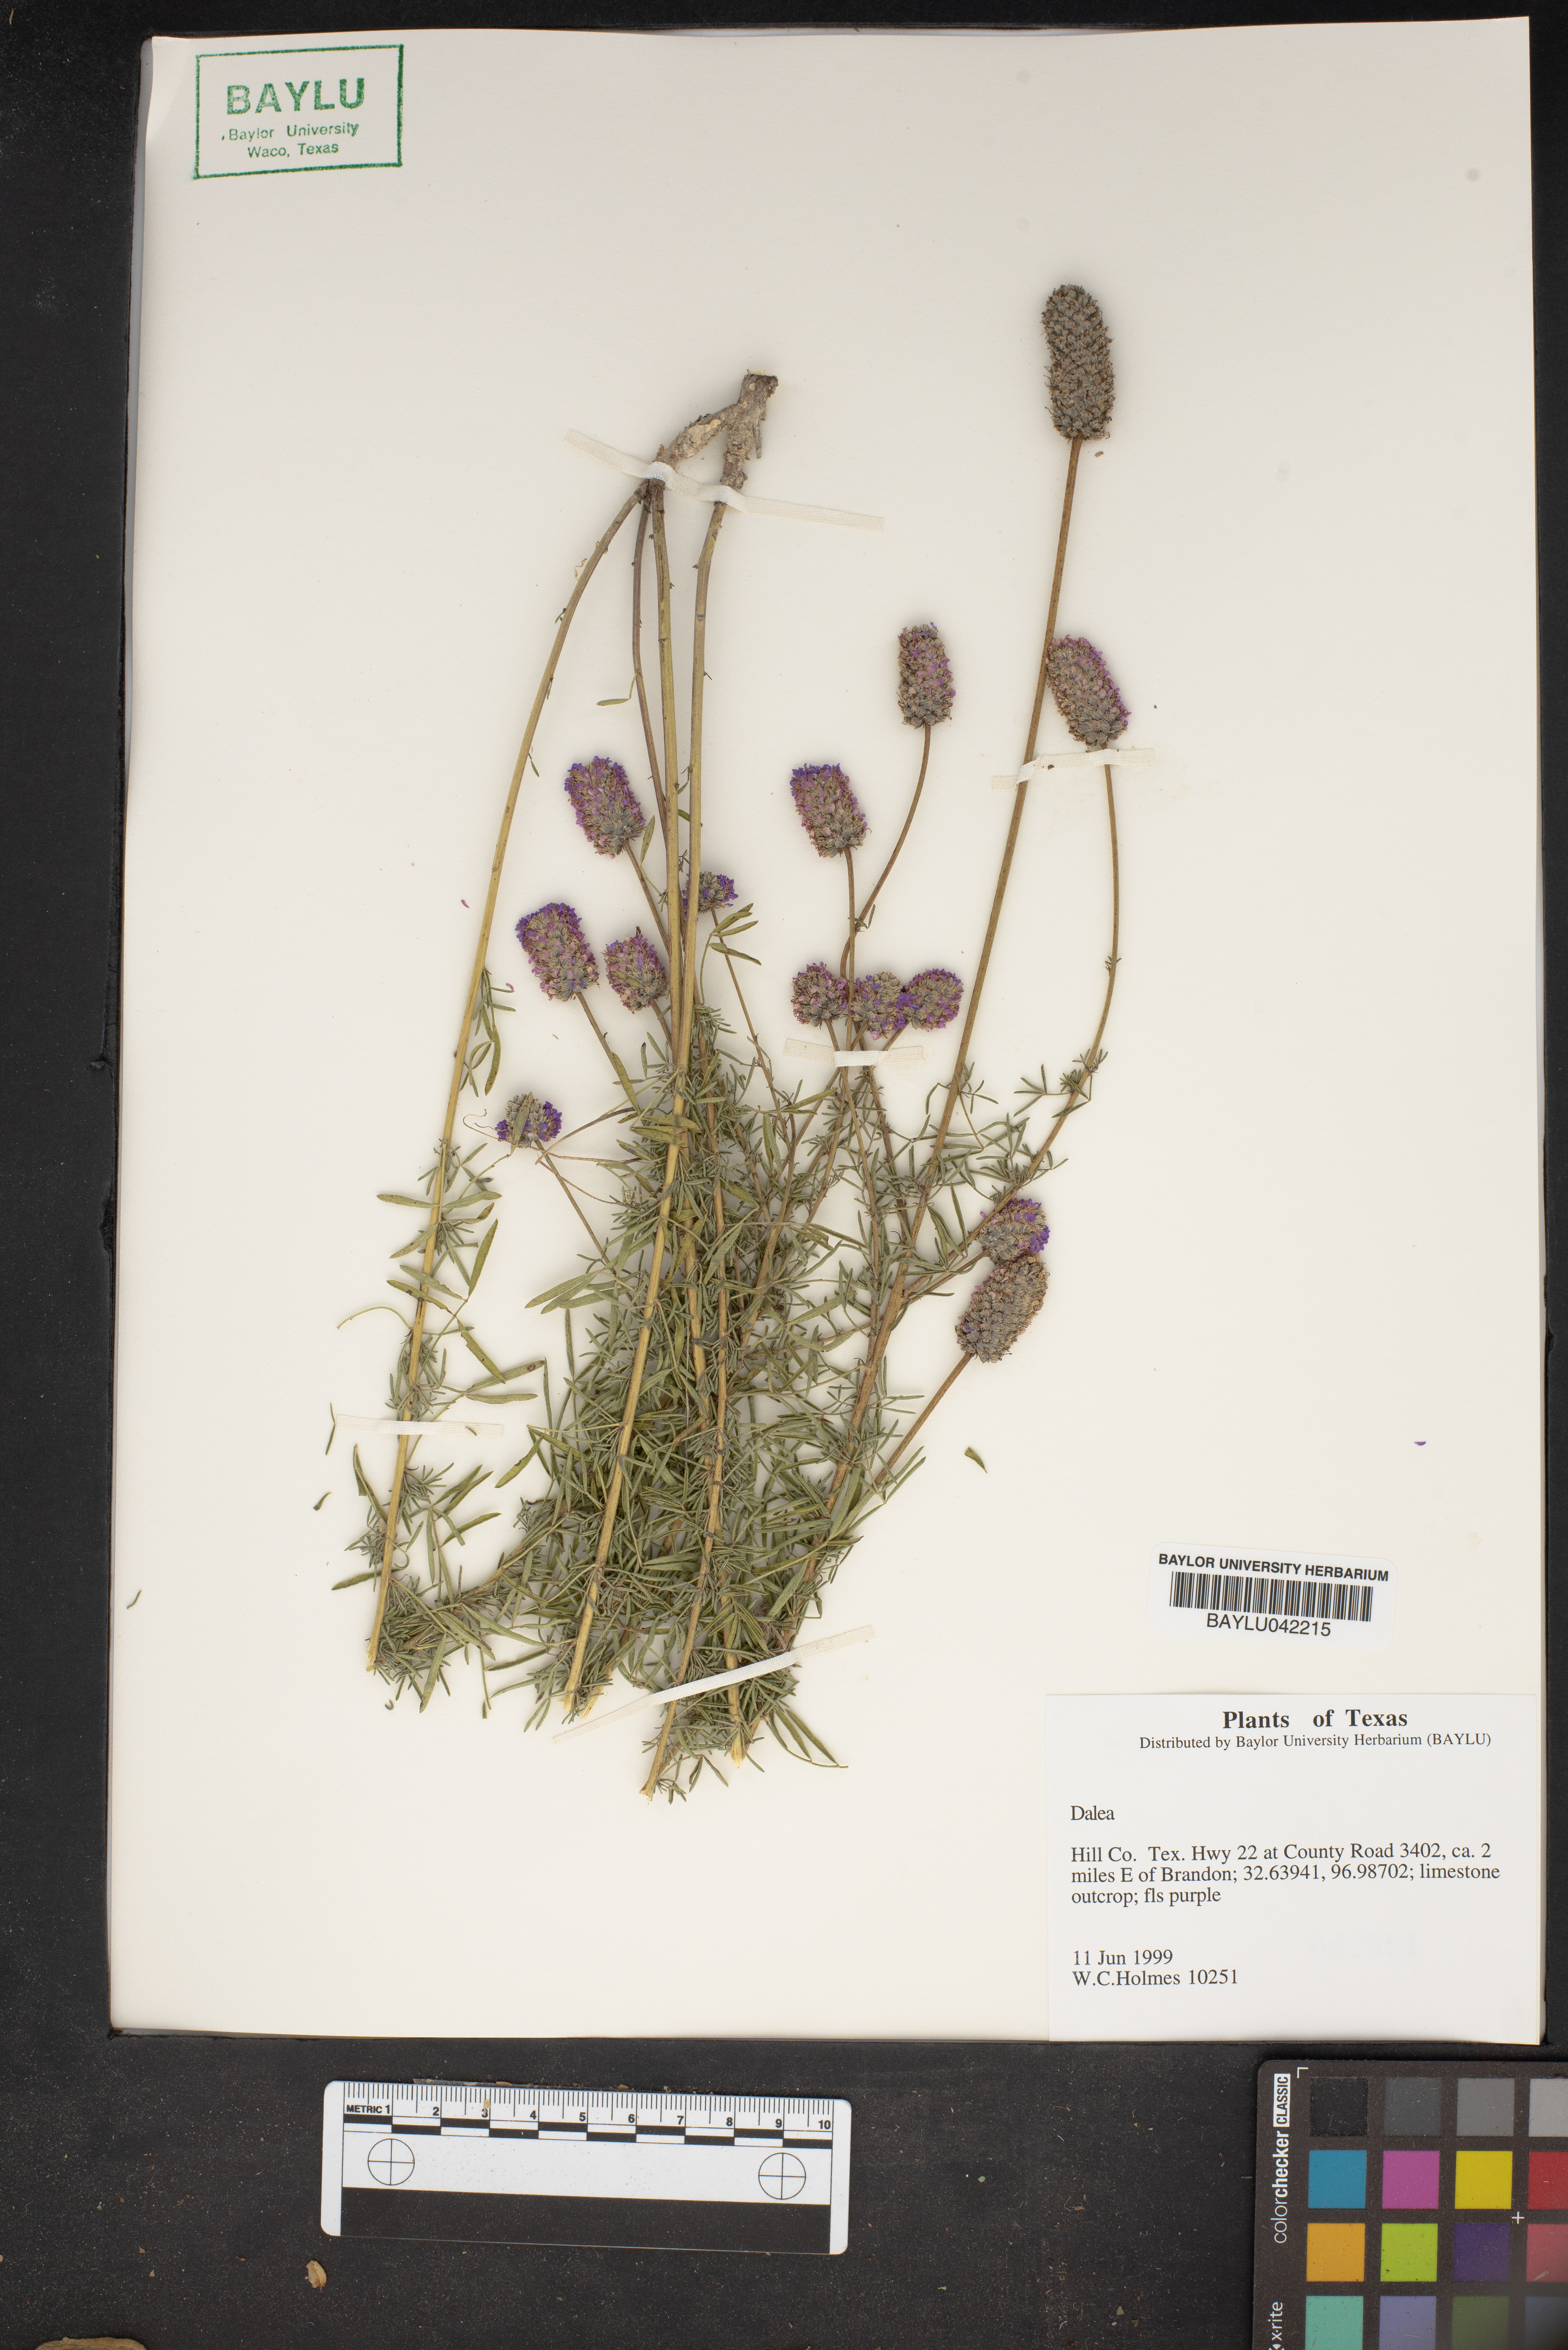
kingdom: Plantae
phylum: Tracheophyta
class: Magnoliopsida
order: Fabales
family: Fabaceae
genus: Dalea
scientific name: Dalea
